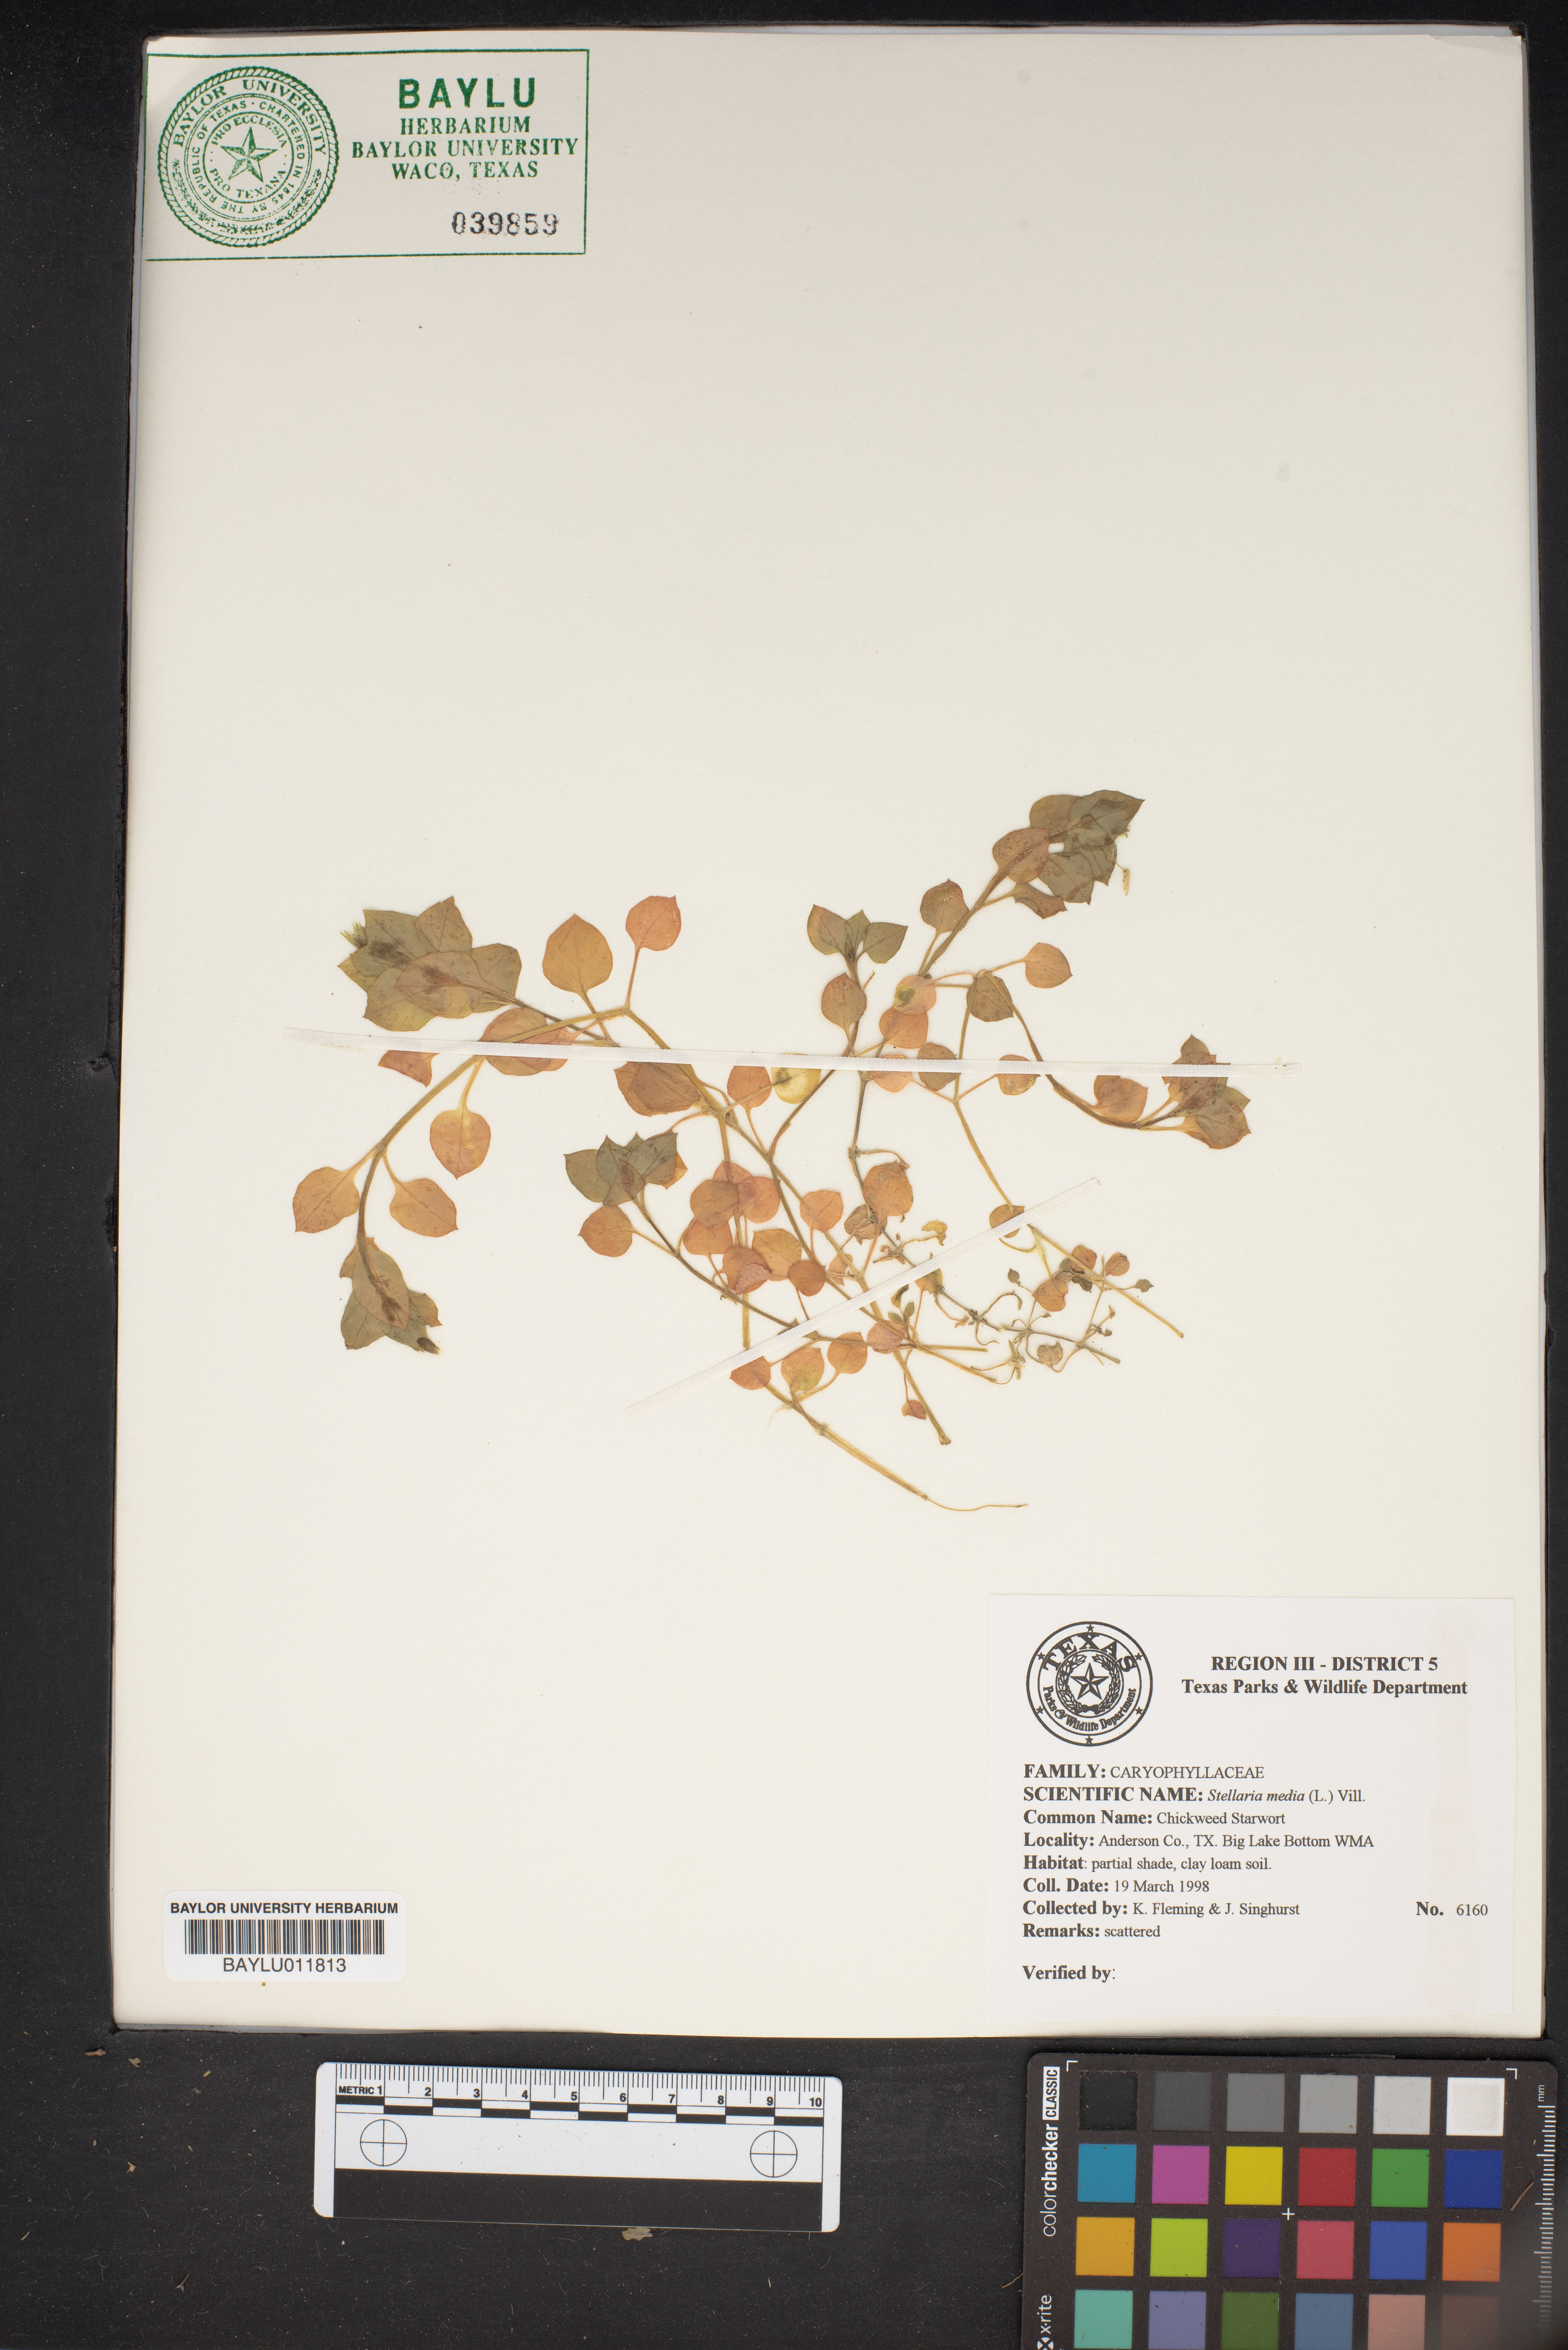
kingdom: Plantae
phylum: Tracheophyta
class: Magnoliopsida
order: Caryophyllales
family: Caryophyllaceae
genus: Stellaria
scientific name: Stellaria media
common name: Common chickweed
